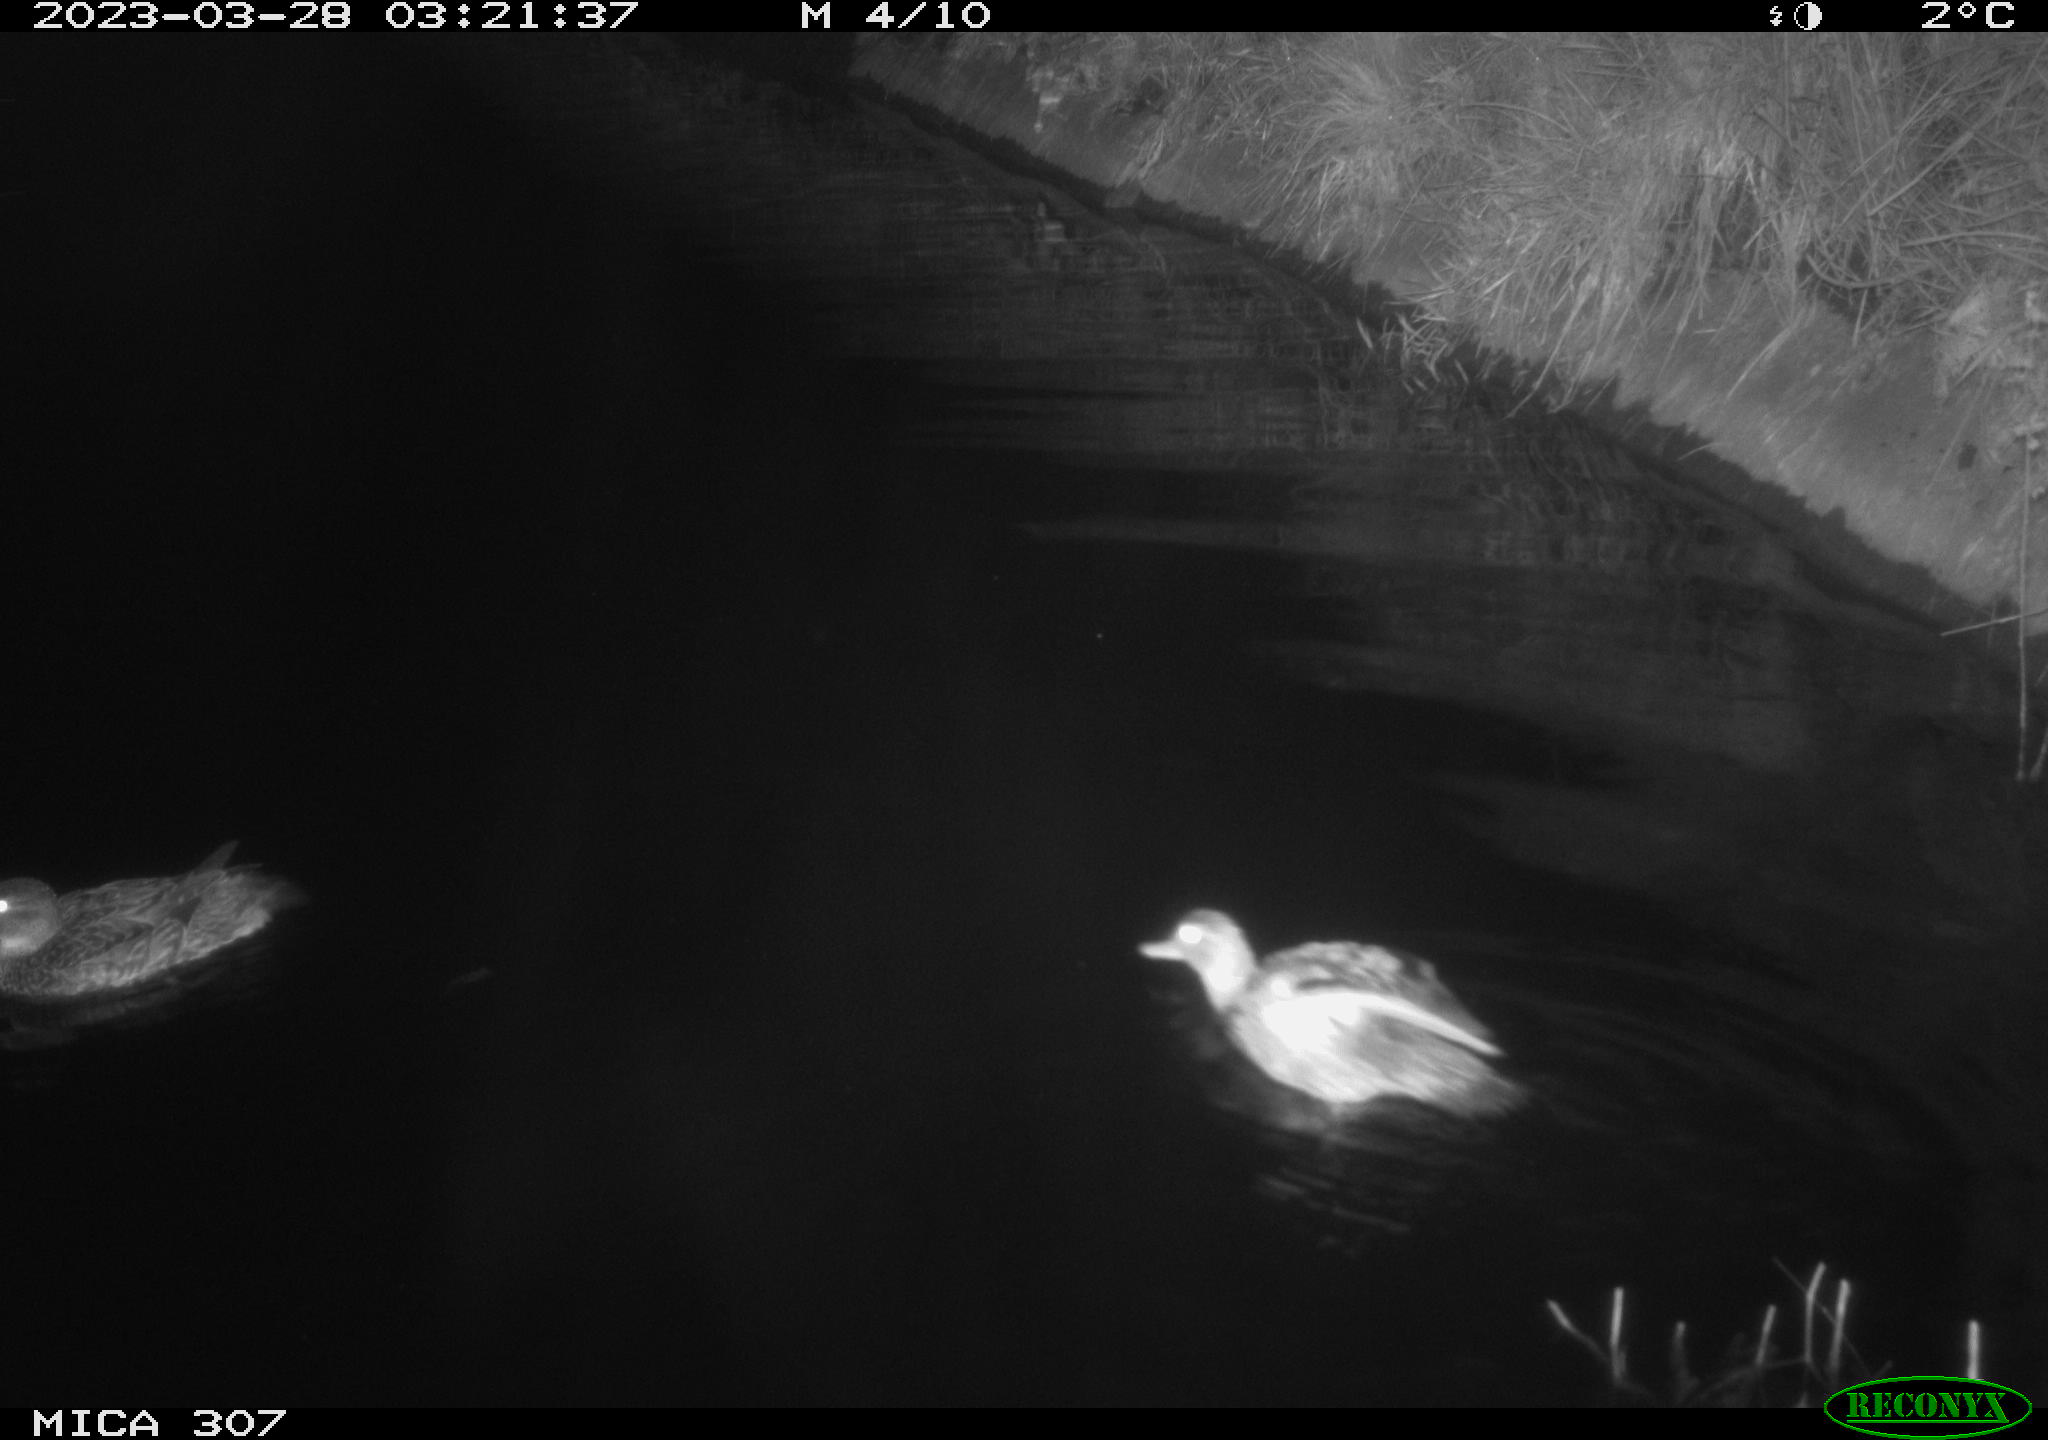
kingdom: Animalia
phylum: Chordata
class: Aves
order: Anseriformes
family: Anatidae
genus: Anas
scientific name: Anas
